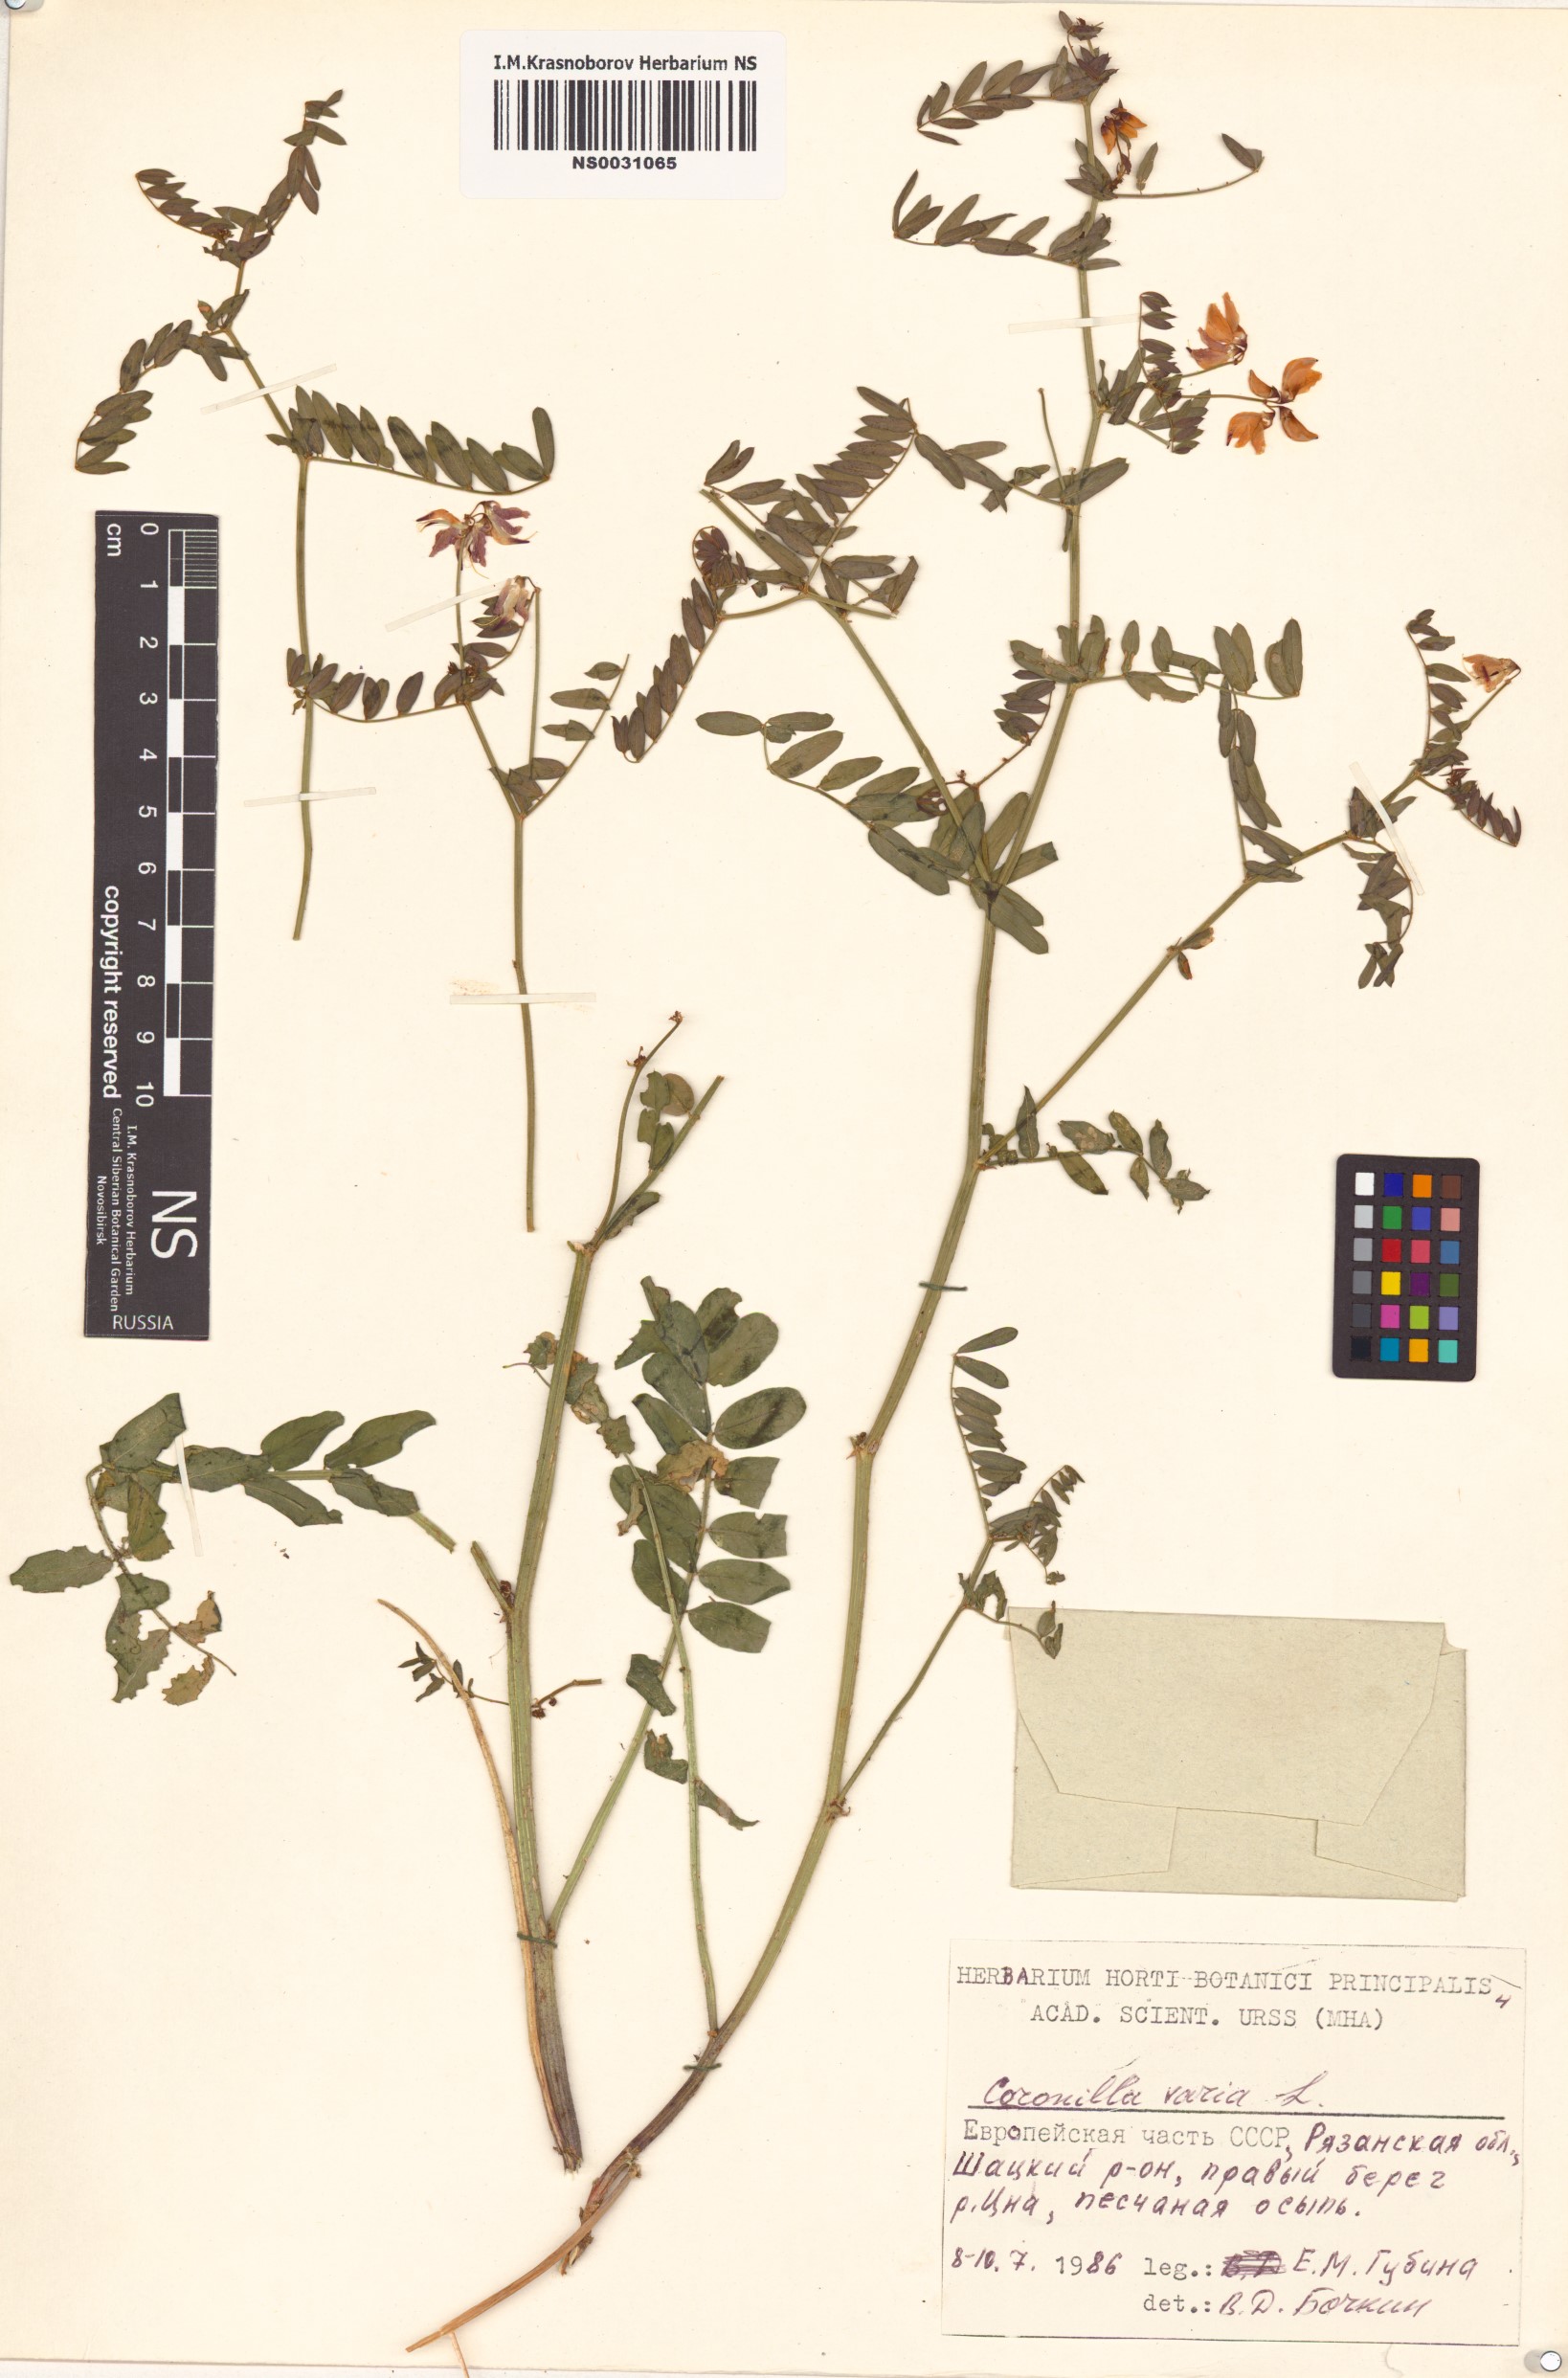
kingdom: Plantae
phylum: Tracheophyta
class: Magnoliopsida
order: Fabales
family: Fabaceae
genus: Coronilla
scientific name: Coronilla varia
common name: Crownvetch
